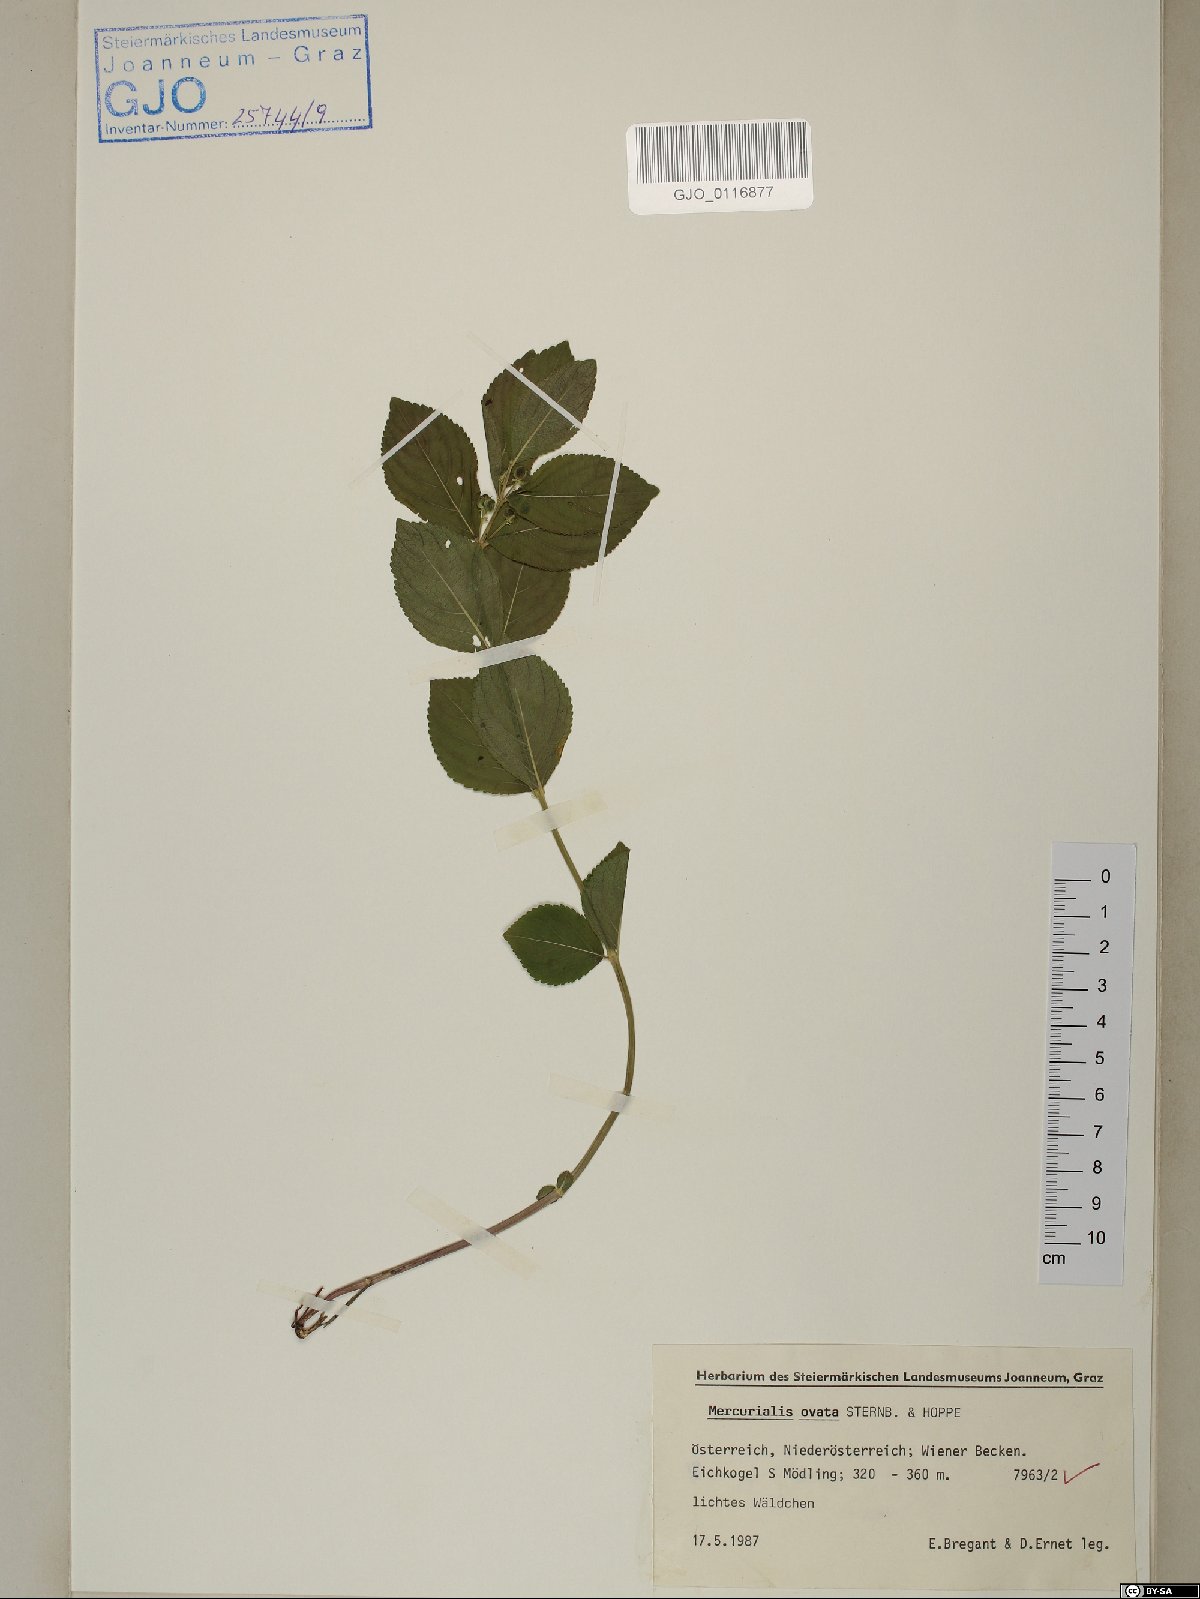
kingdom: Plantae
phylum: Tracheophyta
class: Magnoliopsida
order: Malpighiales
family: Euphorbiaceae
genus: Mercurialis
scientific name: Mercurialis ovata
